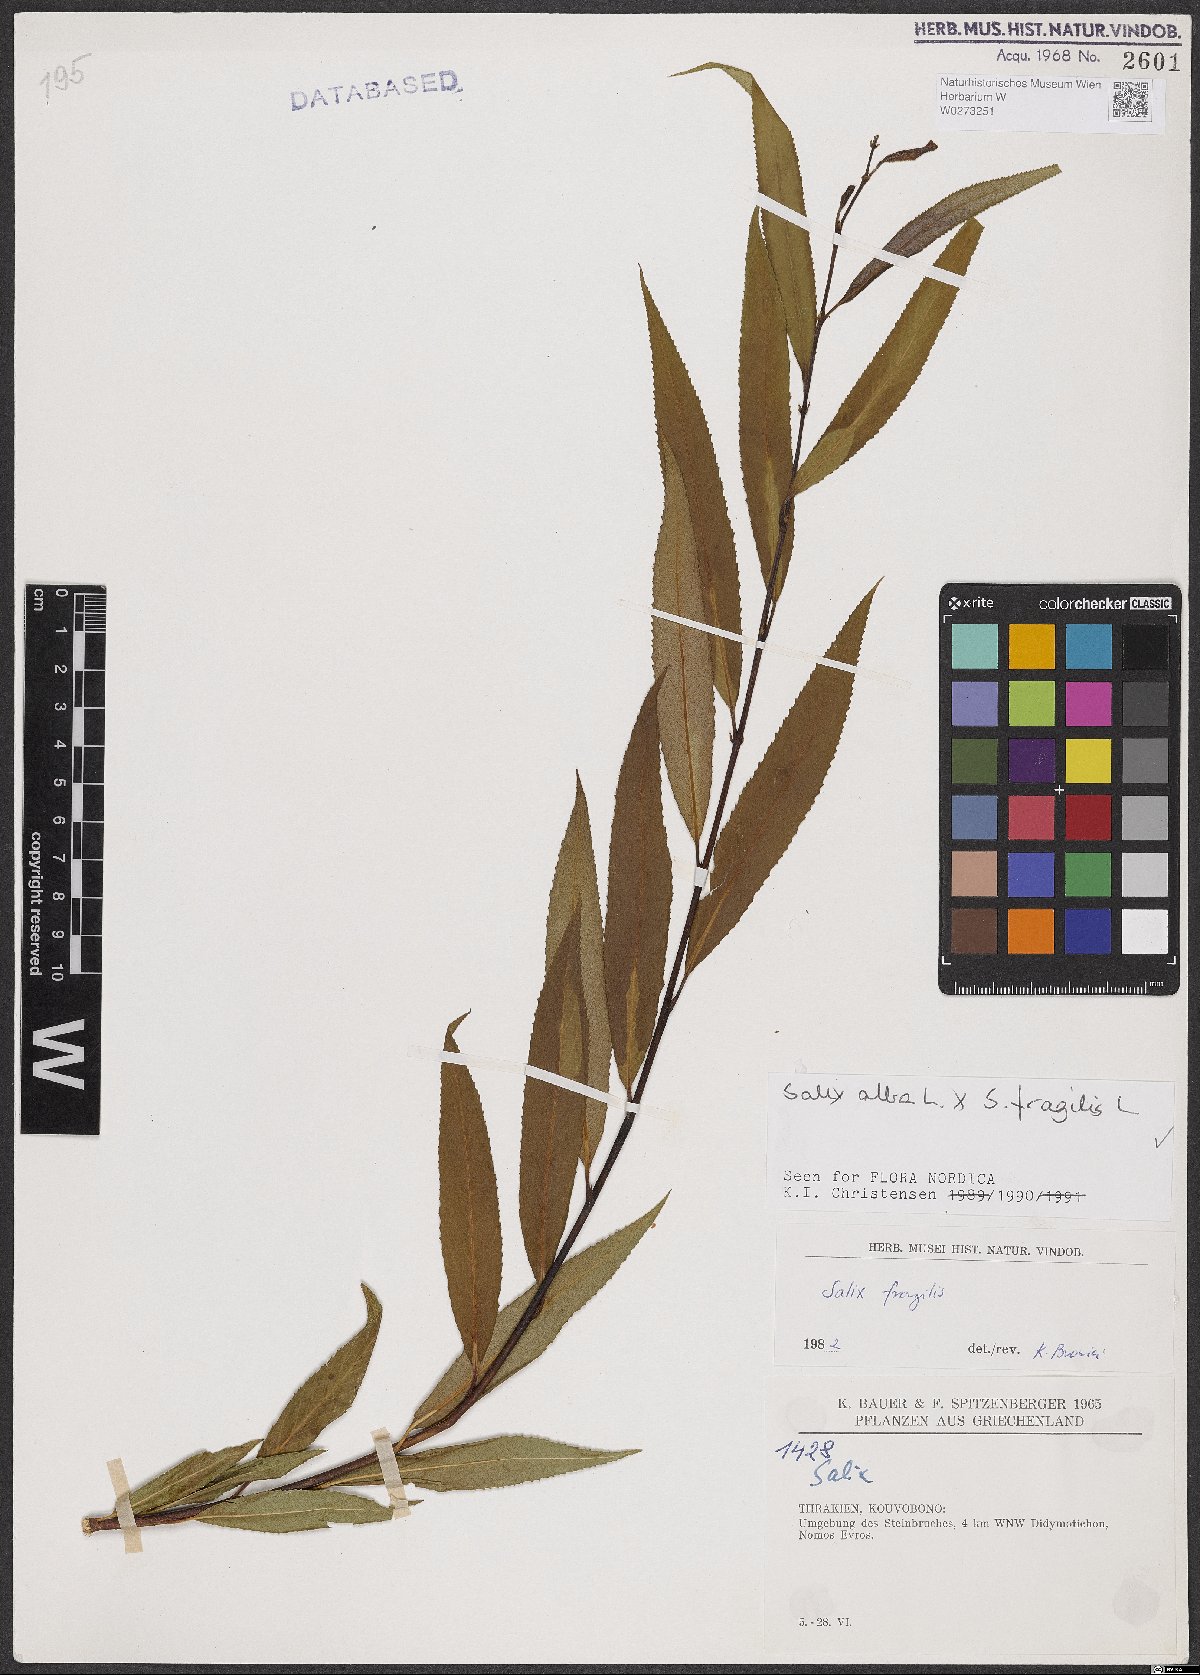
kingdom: Plantae
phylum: Tracheophyta
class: Magnoliopsida
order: Malpighiales
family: Salicaceae
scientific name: Salicaceae
